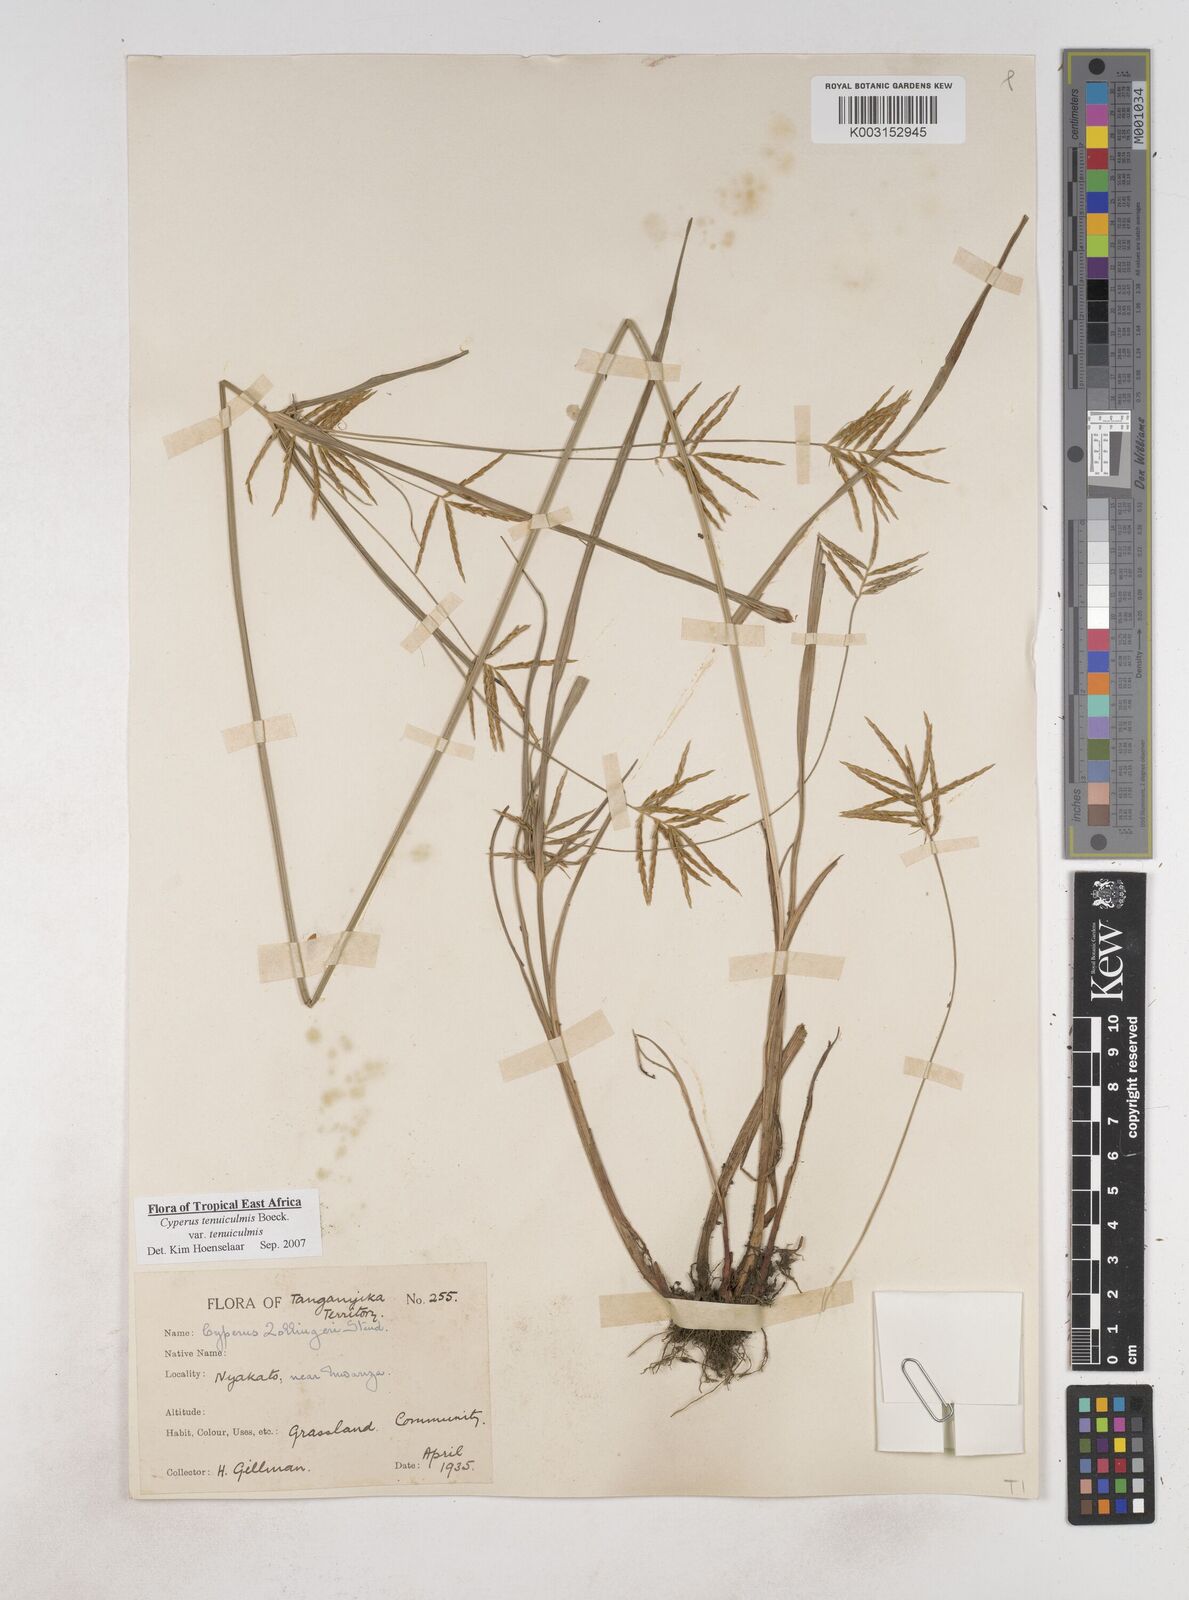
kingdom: Plantae
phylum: Tracheophyta
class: Liliopsida
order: Poales
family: Cyperaceae
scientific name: Cyperaceae
